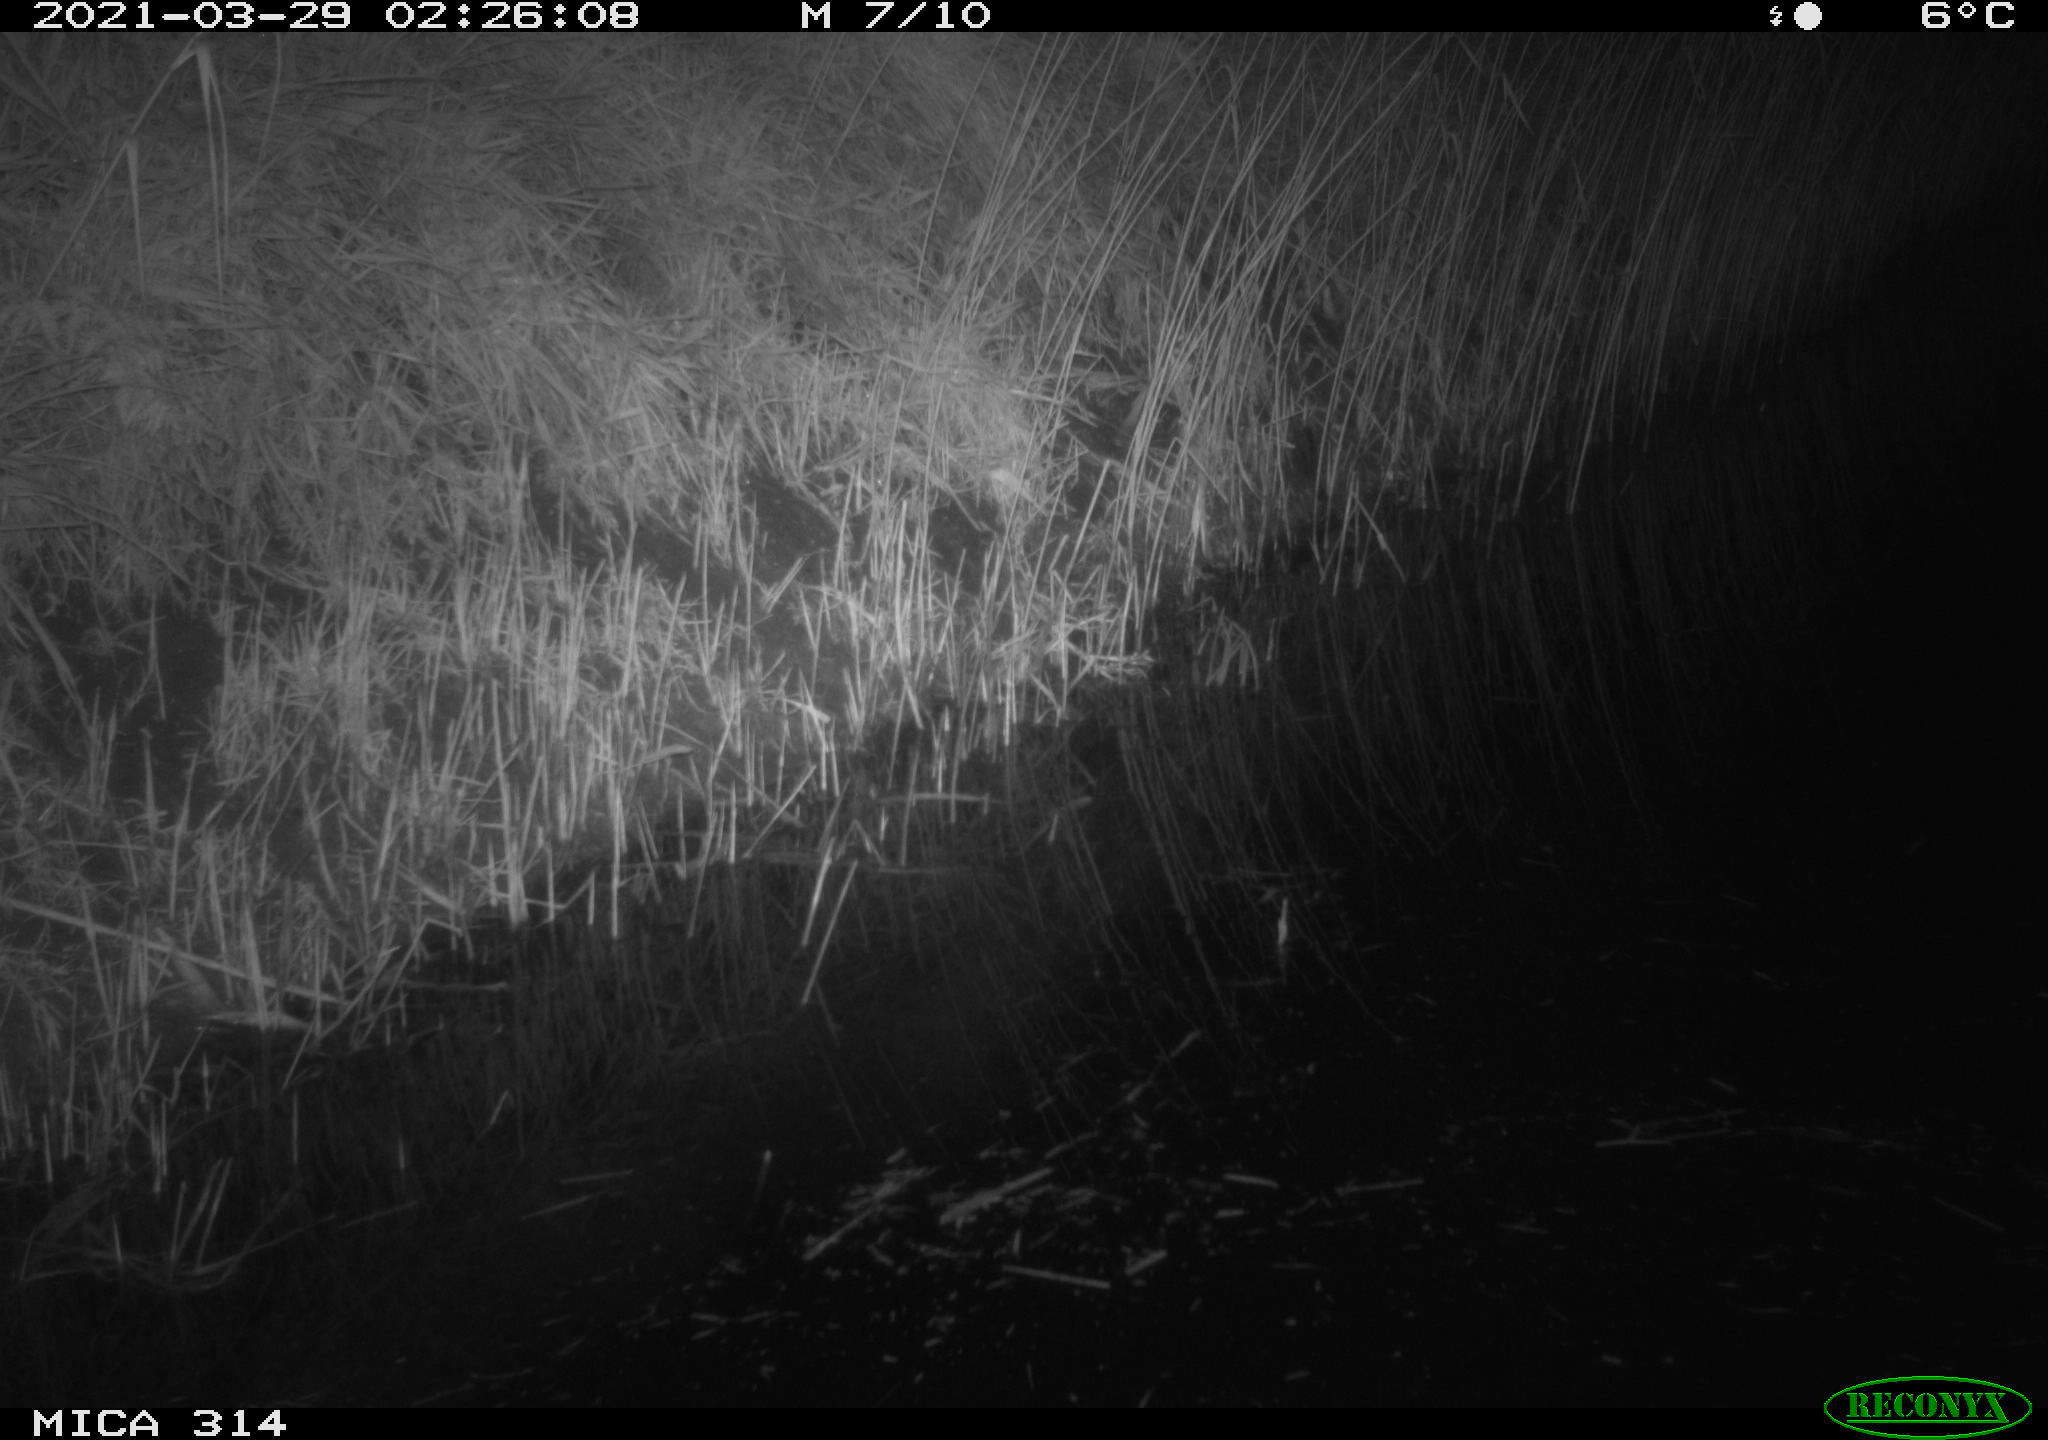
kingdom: Animalia
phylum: Chordata
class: Mammalia
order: Rodentia
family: Muridae
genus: Rattus
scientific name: Rattus norvegicus
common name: Brown rat
